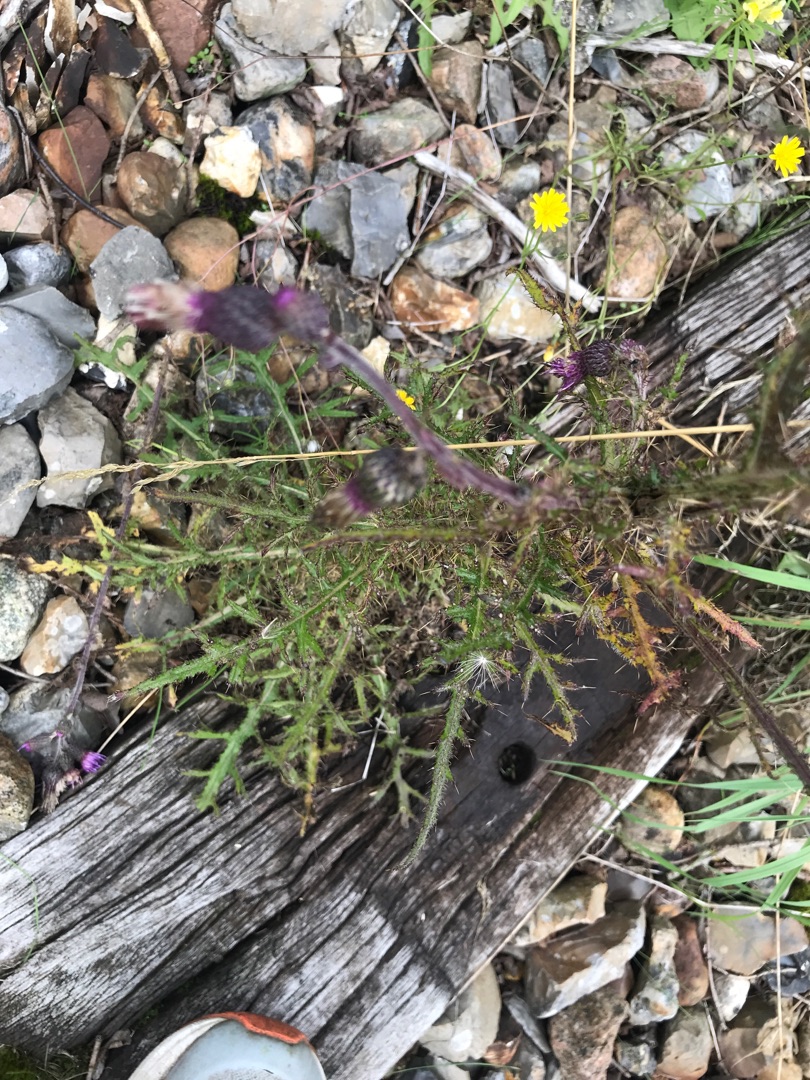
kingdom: Plantae
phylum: Tracheophyta
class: Magnoliopsida
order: Asterales
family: Asteraceae
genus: Cirsium
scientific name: Cirsium palustre
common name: Kær-tidsel
